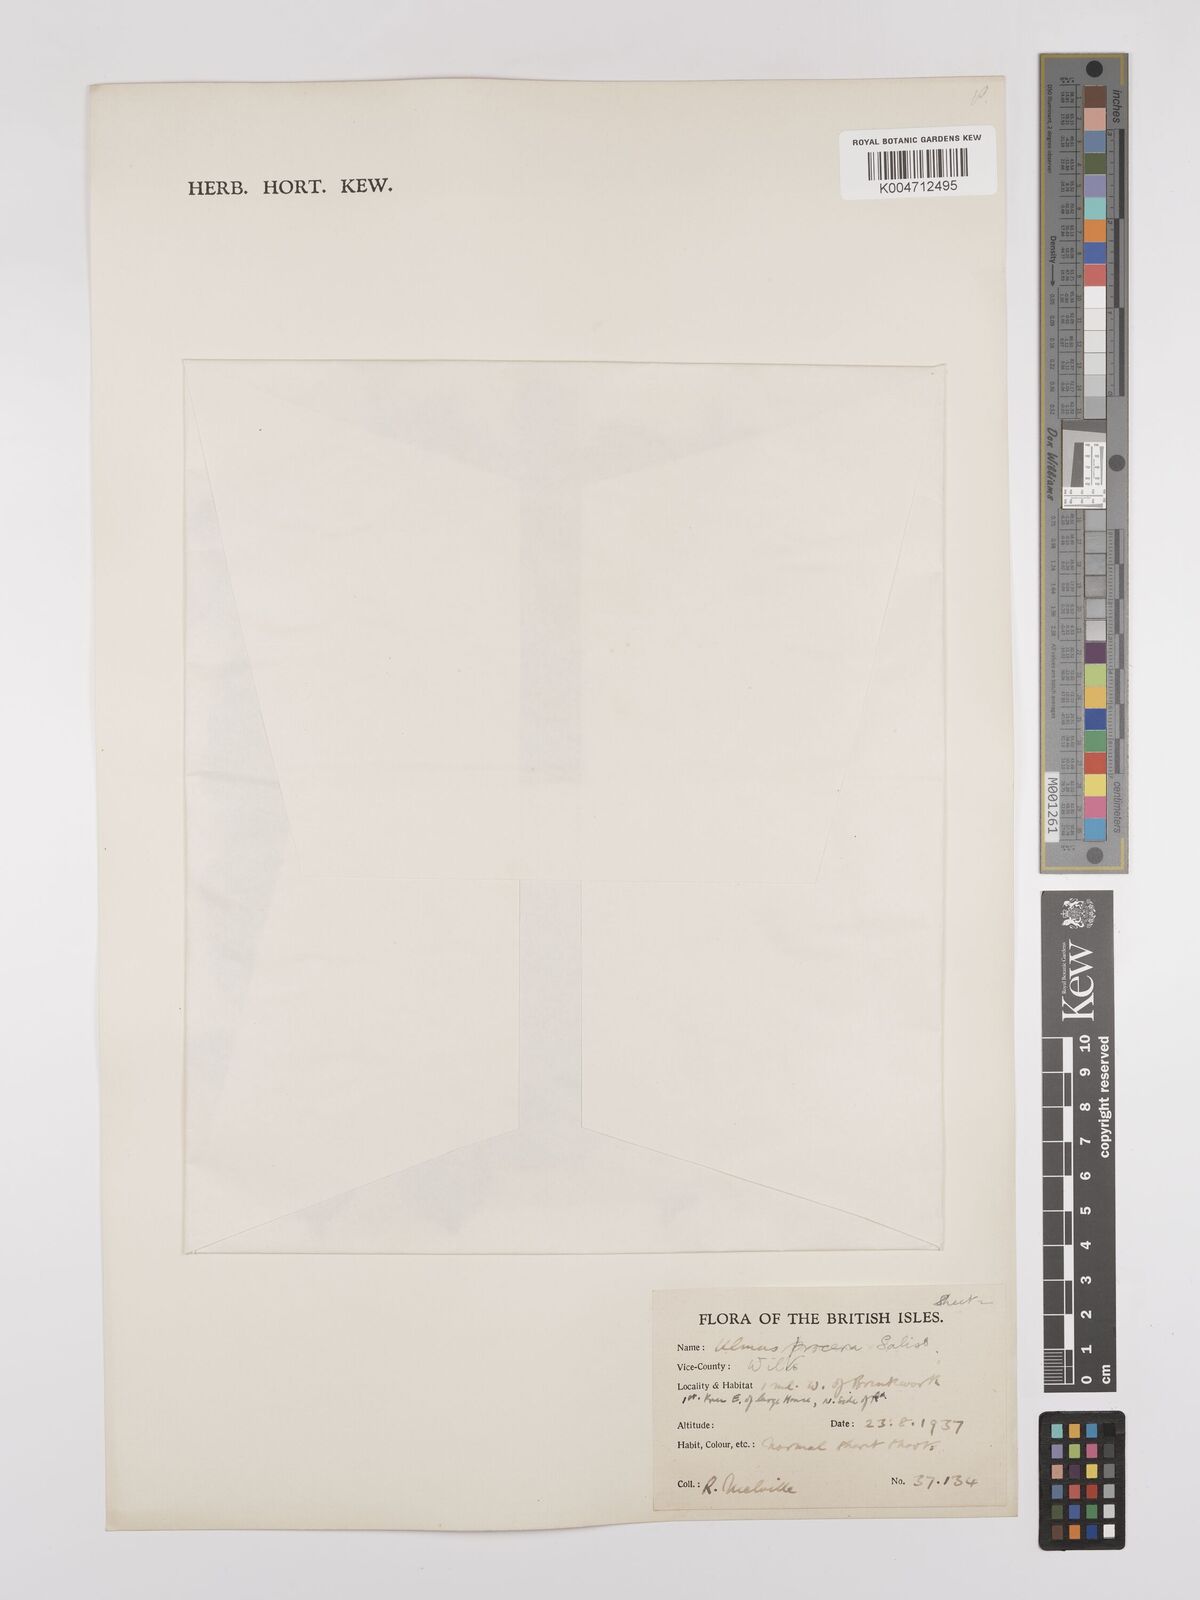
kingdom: Plantae
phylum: Tracheophyta
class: Magnoliopsida
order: Rosales
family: Ulmaceae
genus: Ulmus
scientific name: Ulmus minor
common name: Small-leaved elm
